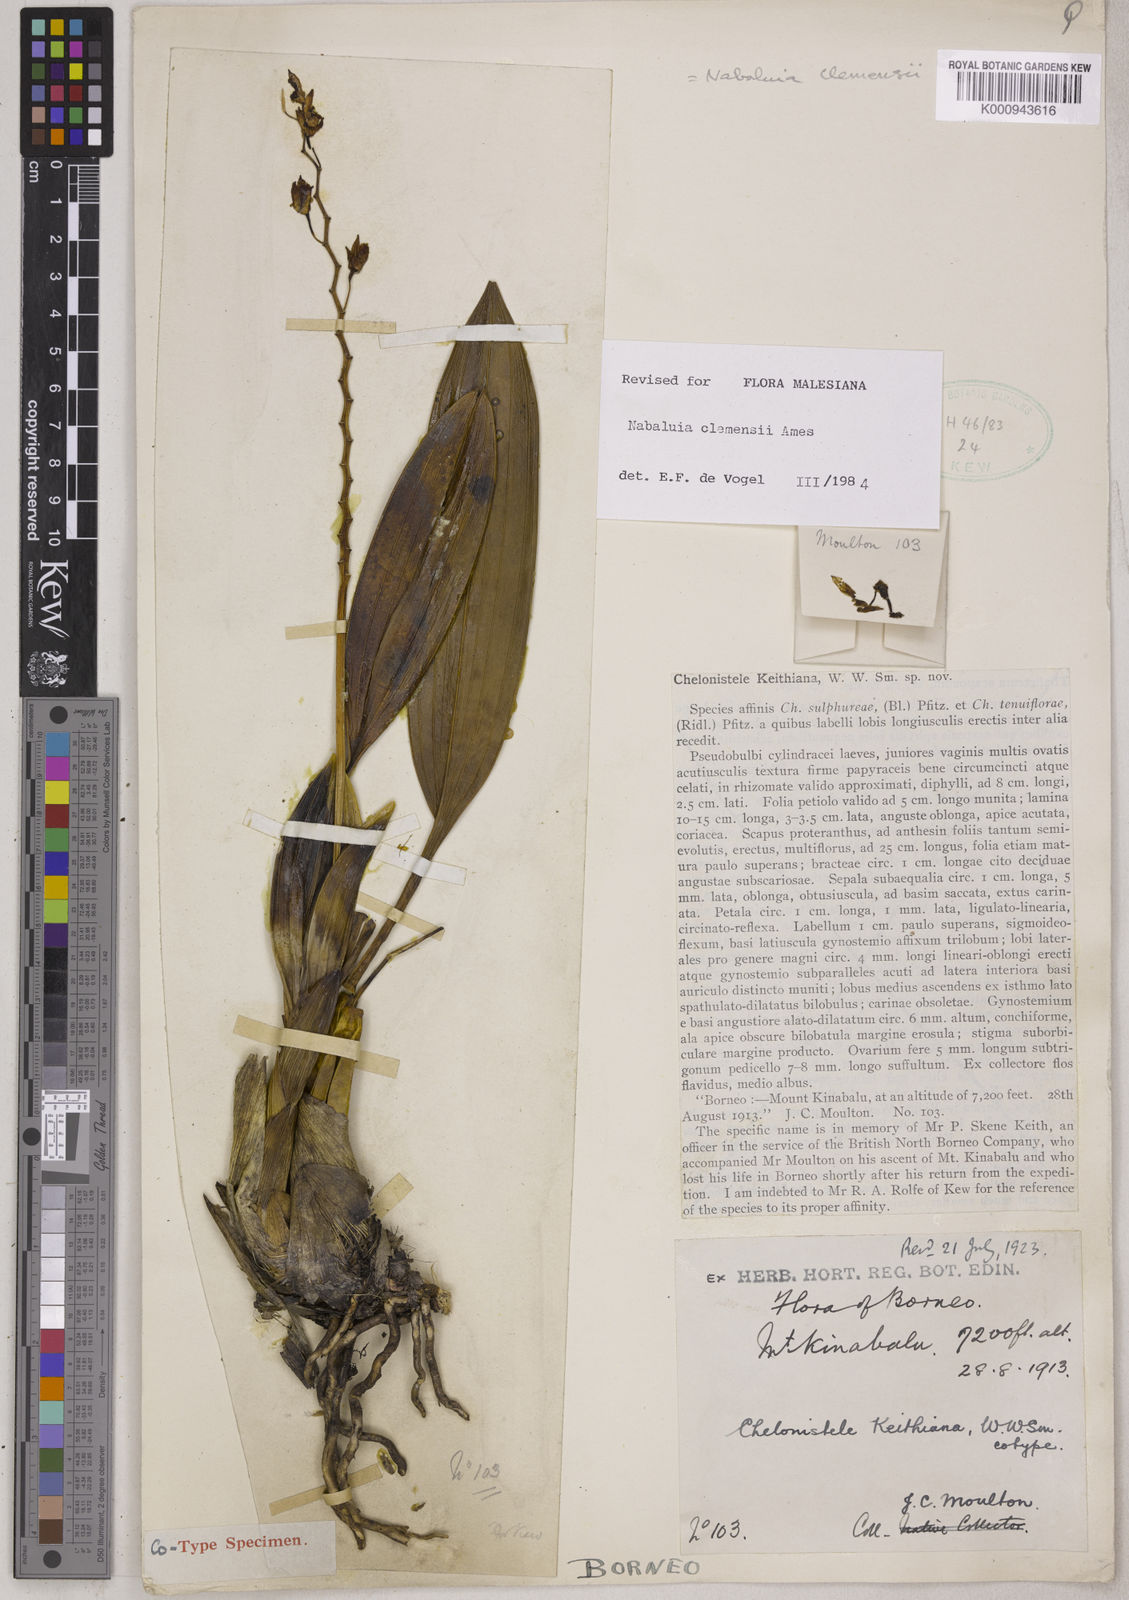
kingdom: Plantae
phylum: Tracheophyta
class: Liliopsida
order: Asparagales
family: Orchidaceae
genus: Coelogyne
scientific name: Coelogyne keithiana
